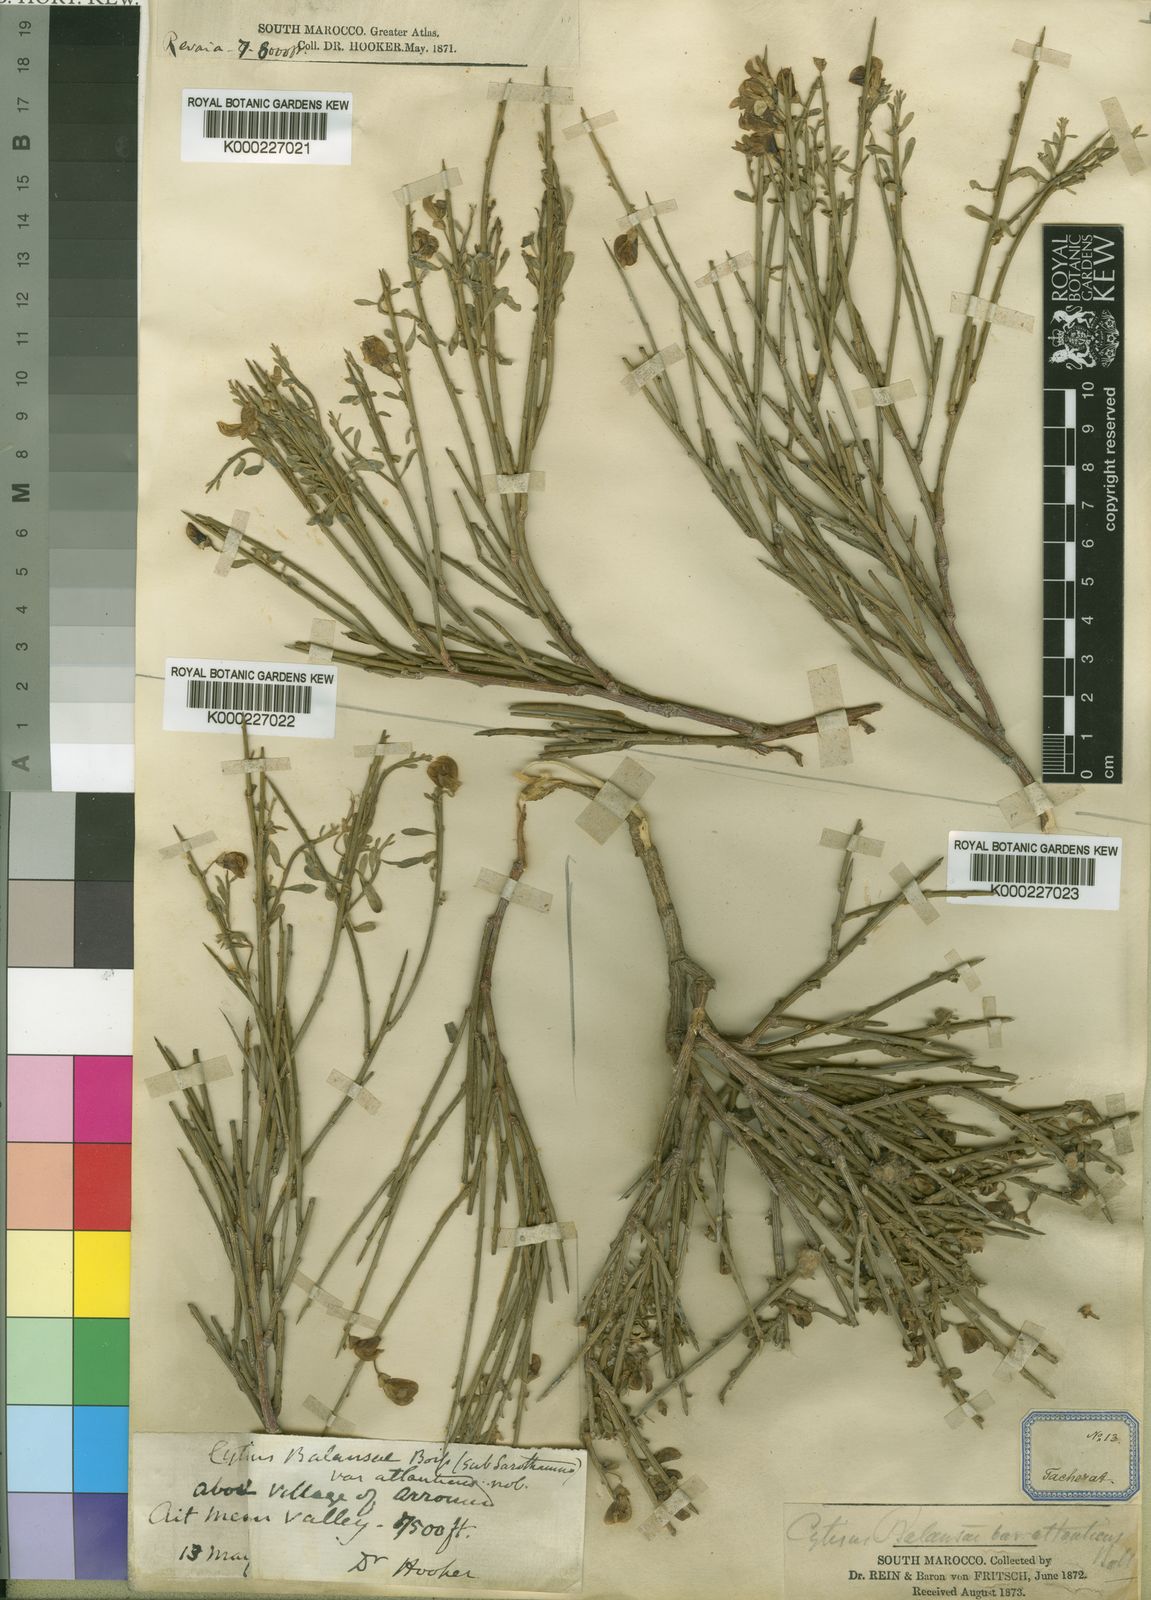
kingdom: Plantae
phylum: Tracheophyta
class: Magnoliopsida
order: Fabales
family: Fabaceae
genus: Cytisus
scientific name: Cytisus
